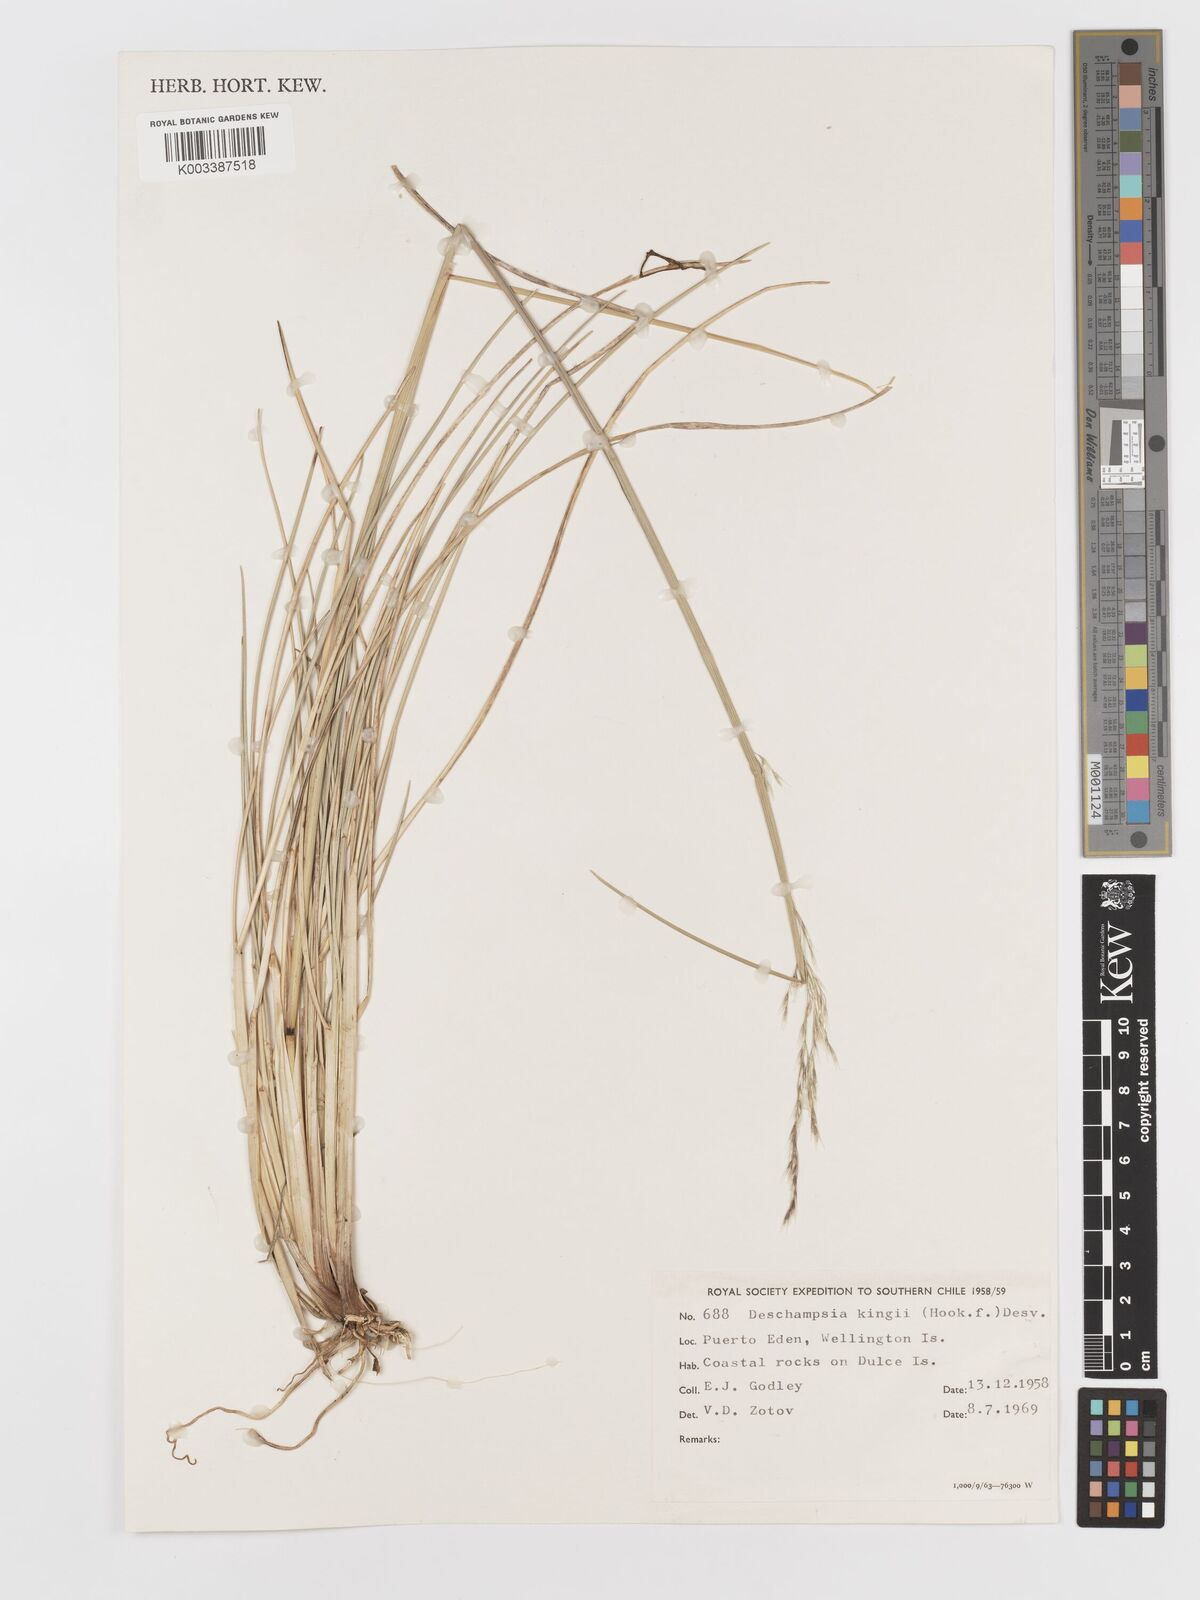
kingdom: Plantae
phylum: Tracheophyta
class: Liliopsida
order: Poales
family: Poaceae
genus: Deschampsia
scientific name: Deschampsia kingii
